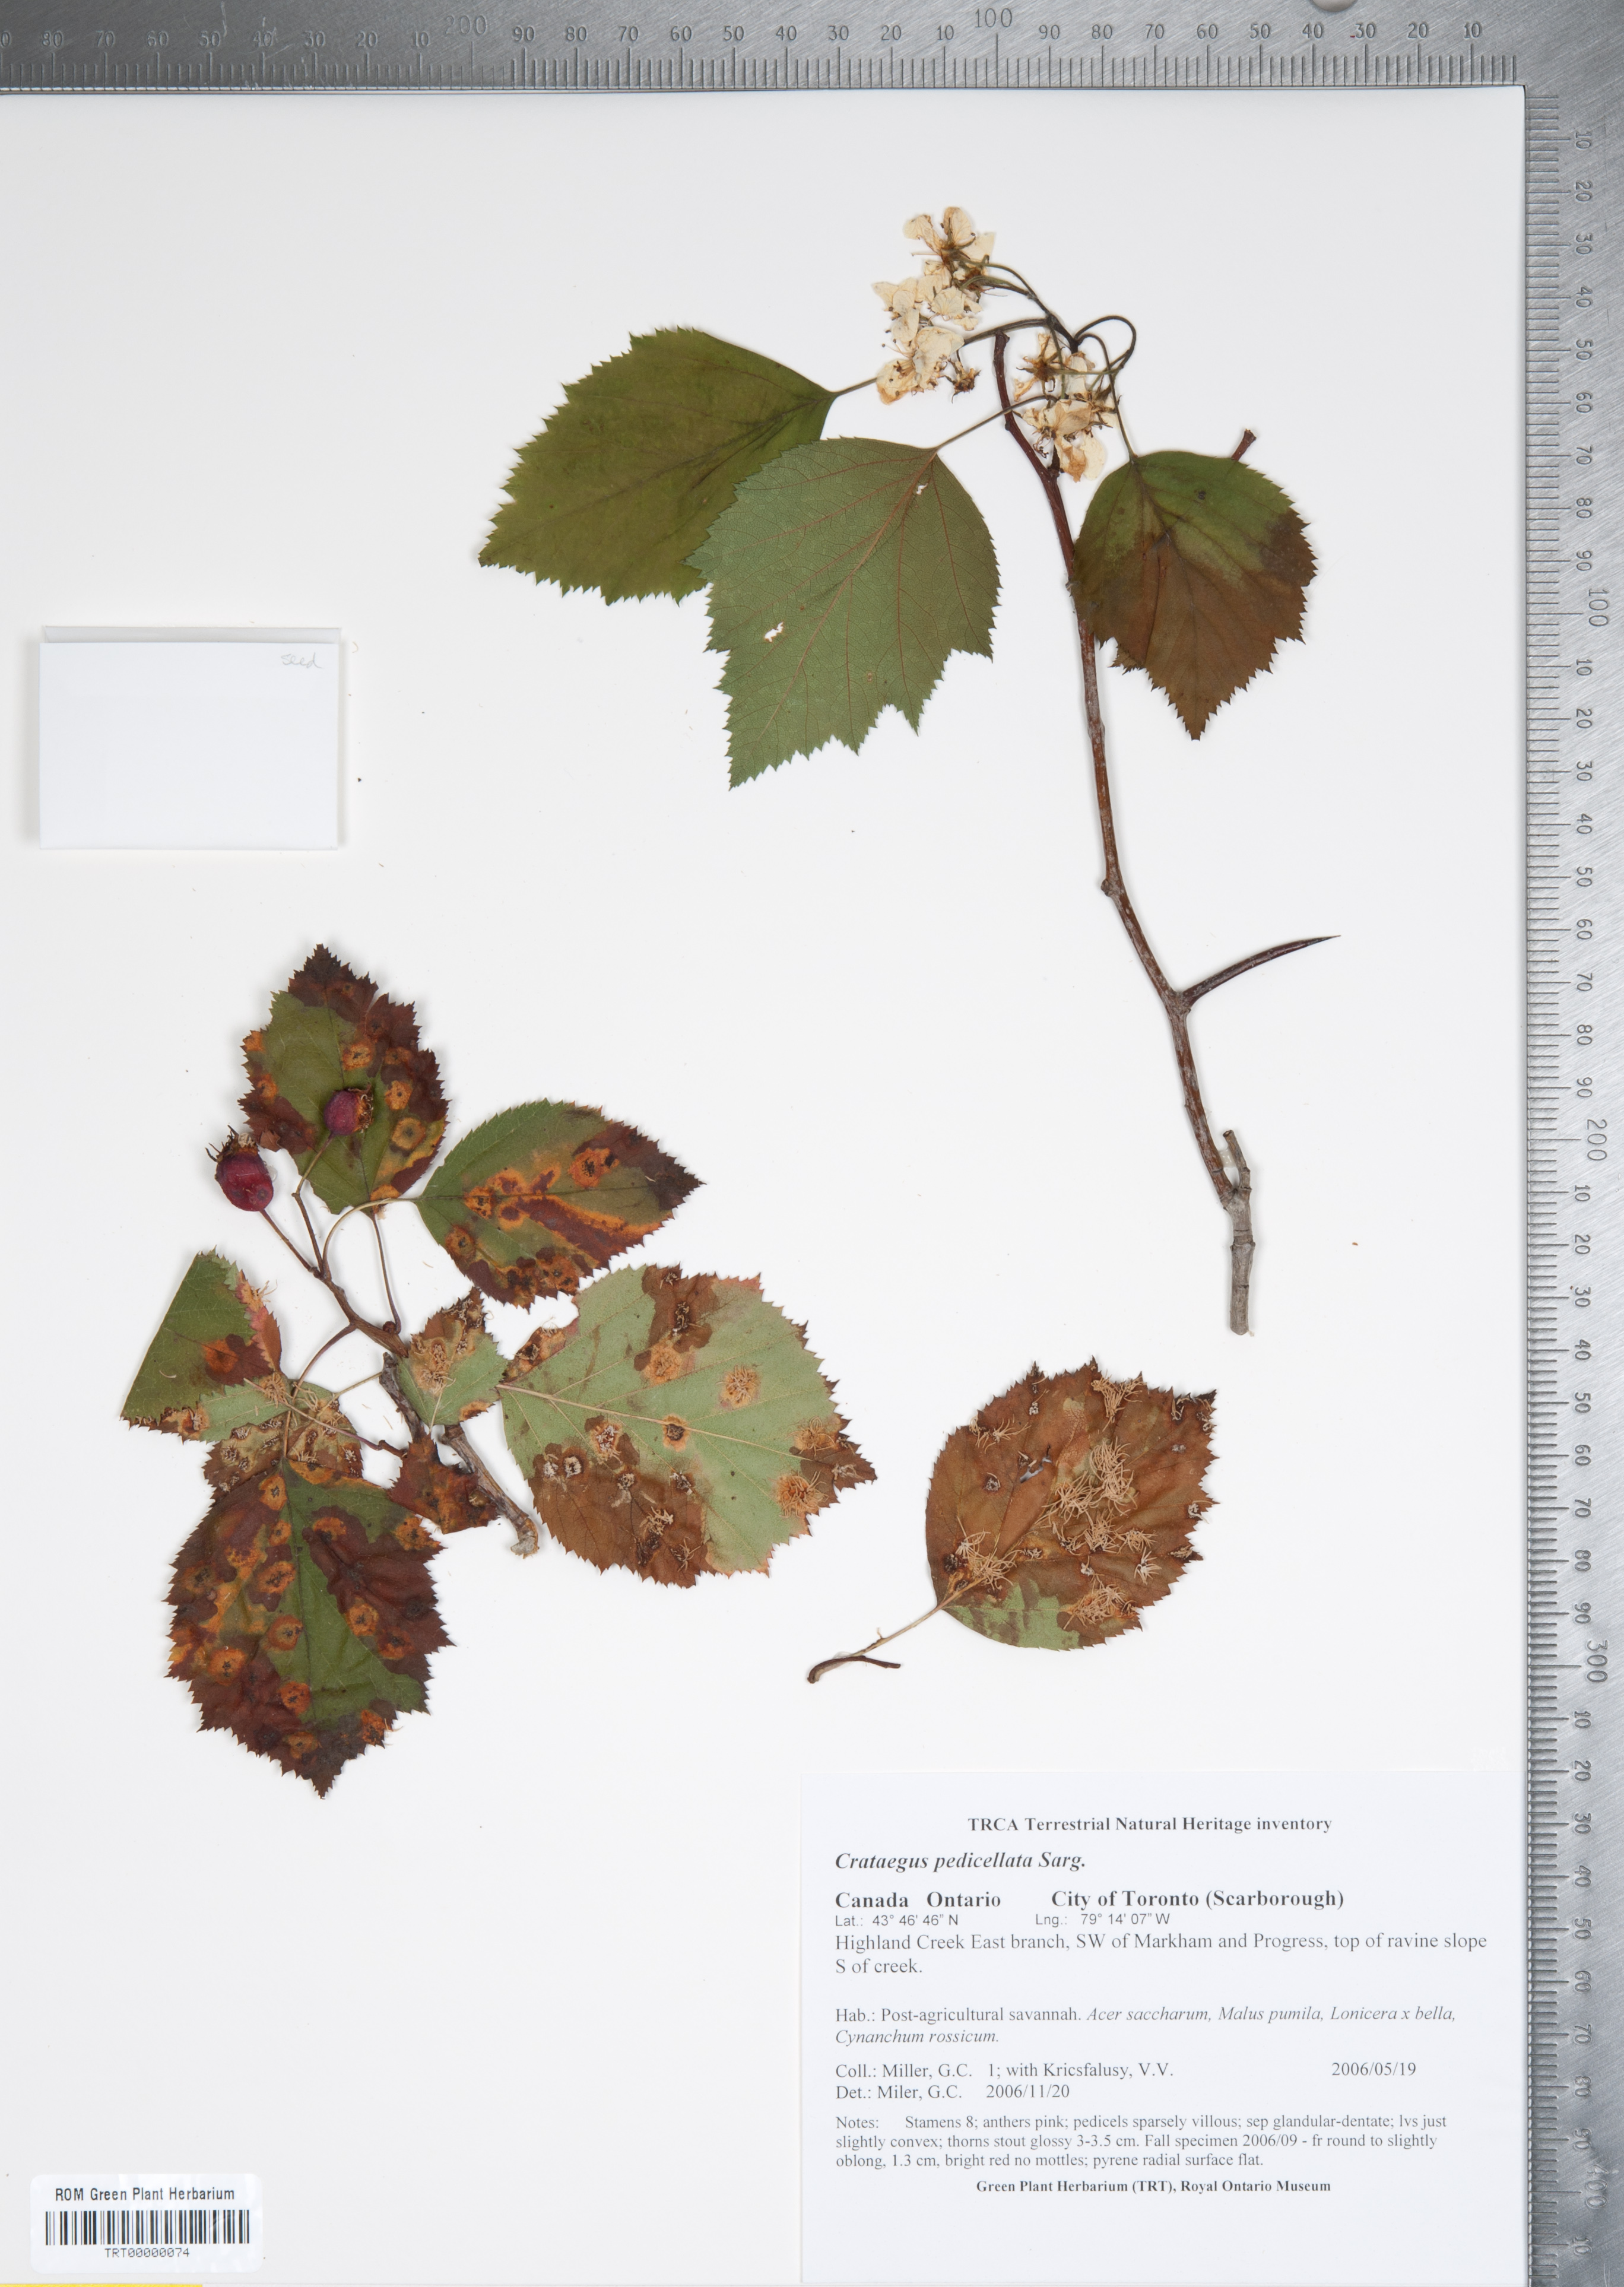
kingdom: Plantae
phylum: Tracheophyta
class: Magnoliopsida
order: Rosales
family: Rosaceae
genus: Crataegus
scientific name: Crataegus coccinea
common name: Scarlet hawthorn
